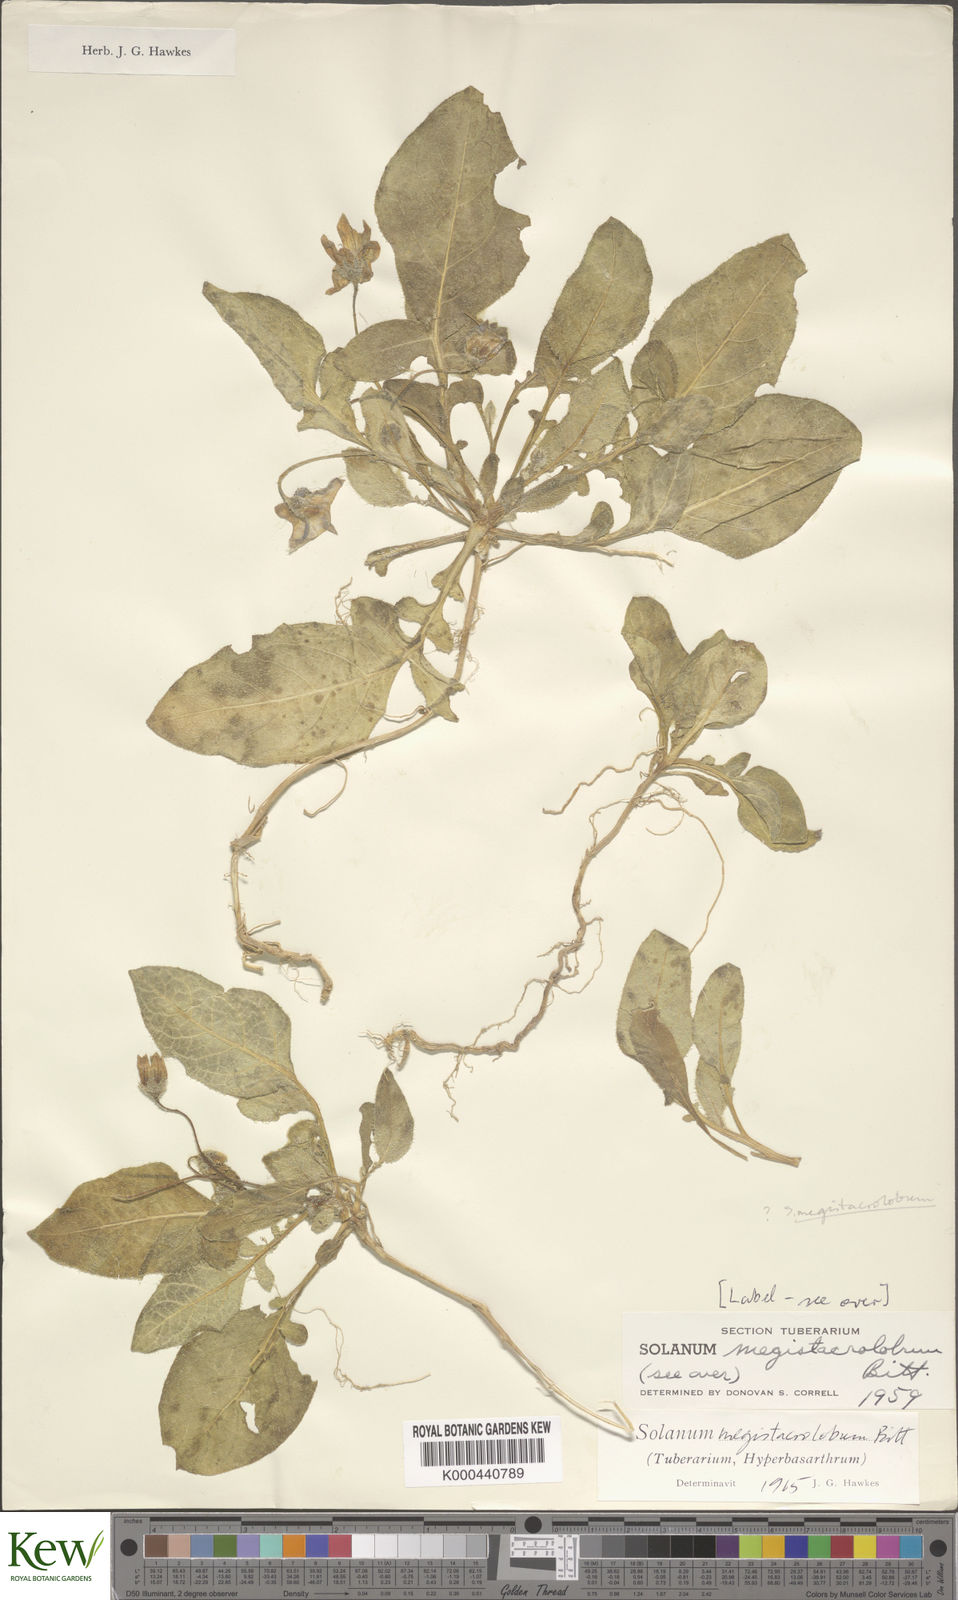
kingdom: Plantae
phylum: Tracheophyta
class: Magnoliopsida
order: Solanales
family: Solanaceae
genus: Solanum
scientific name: Solanum boliviense
